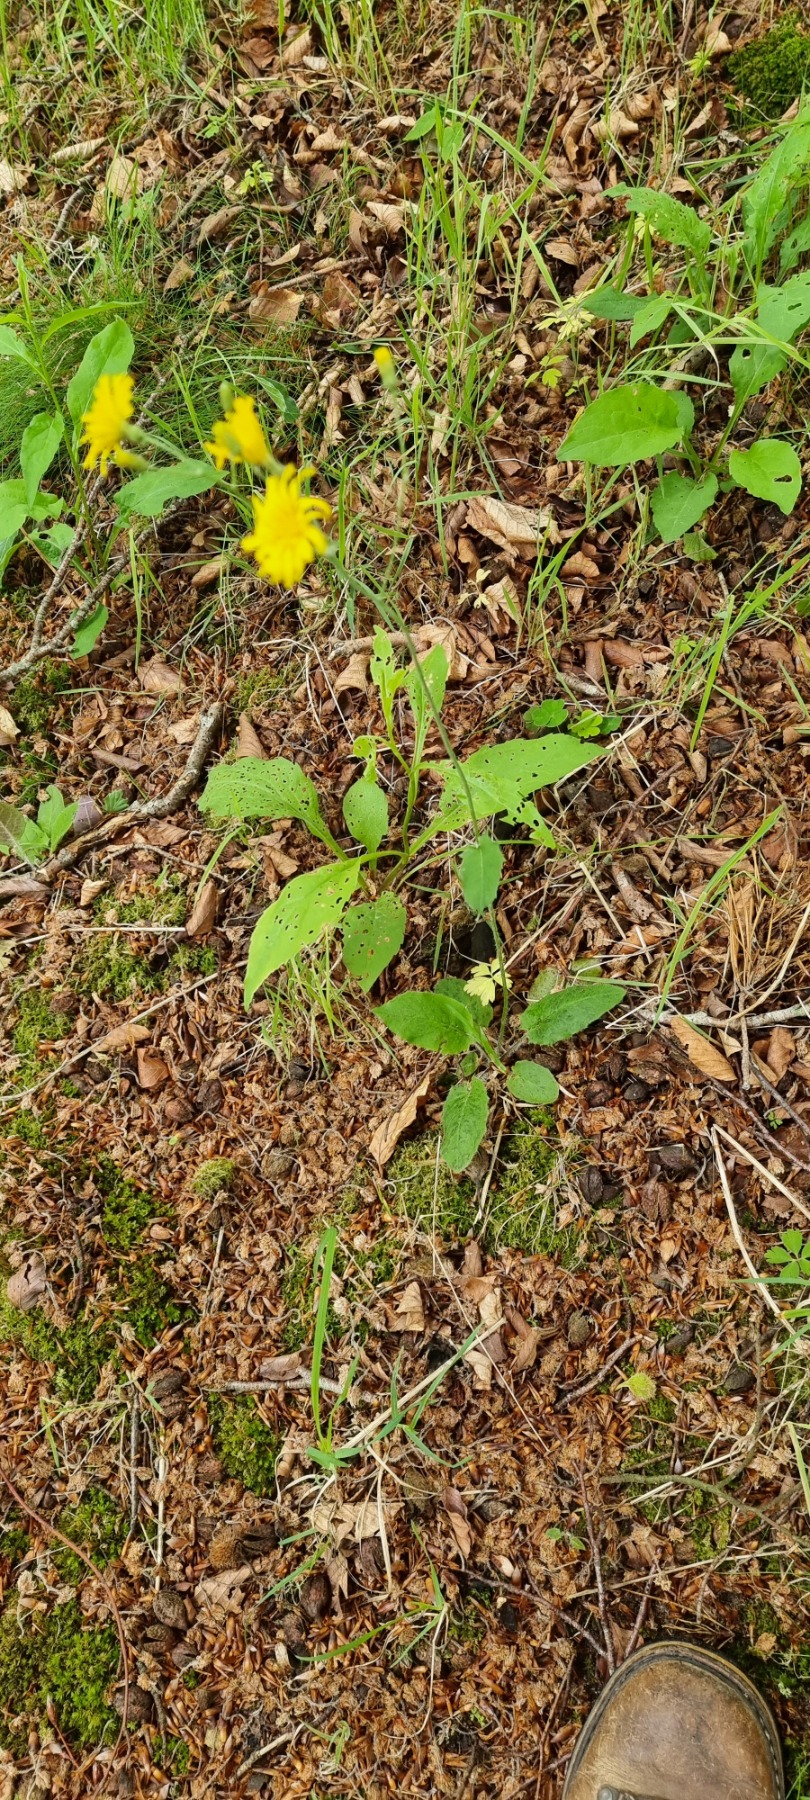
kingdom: Plantae
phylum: Tracheophyta
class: Magnoliopsida
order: Asterales
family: Asteraceae
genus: Hieracium
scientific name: Hieracium murorum
